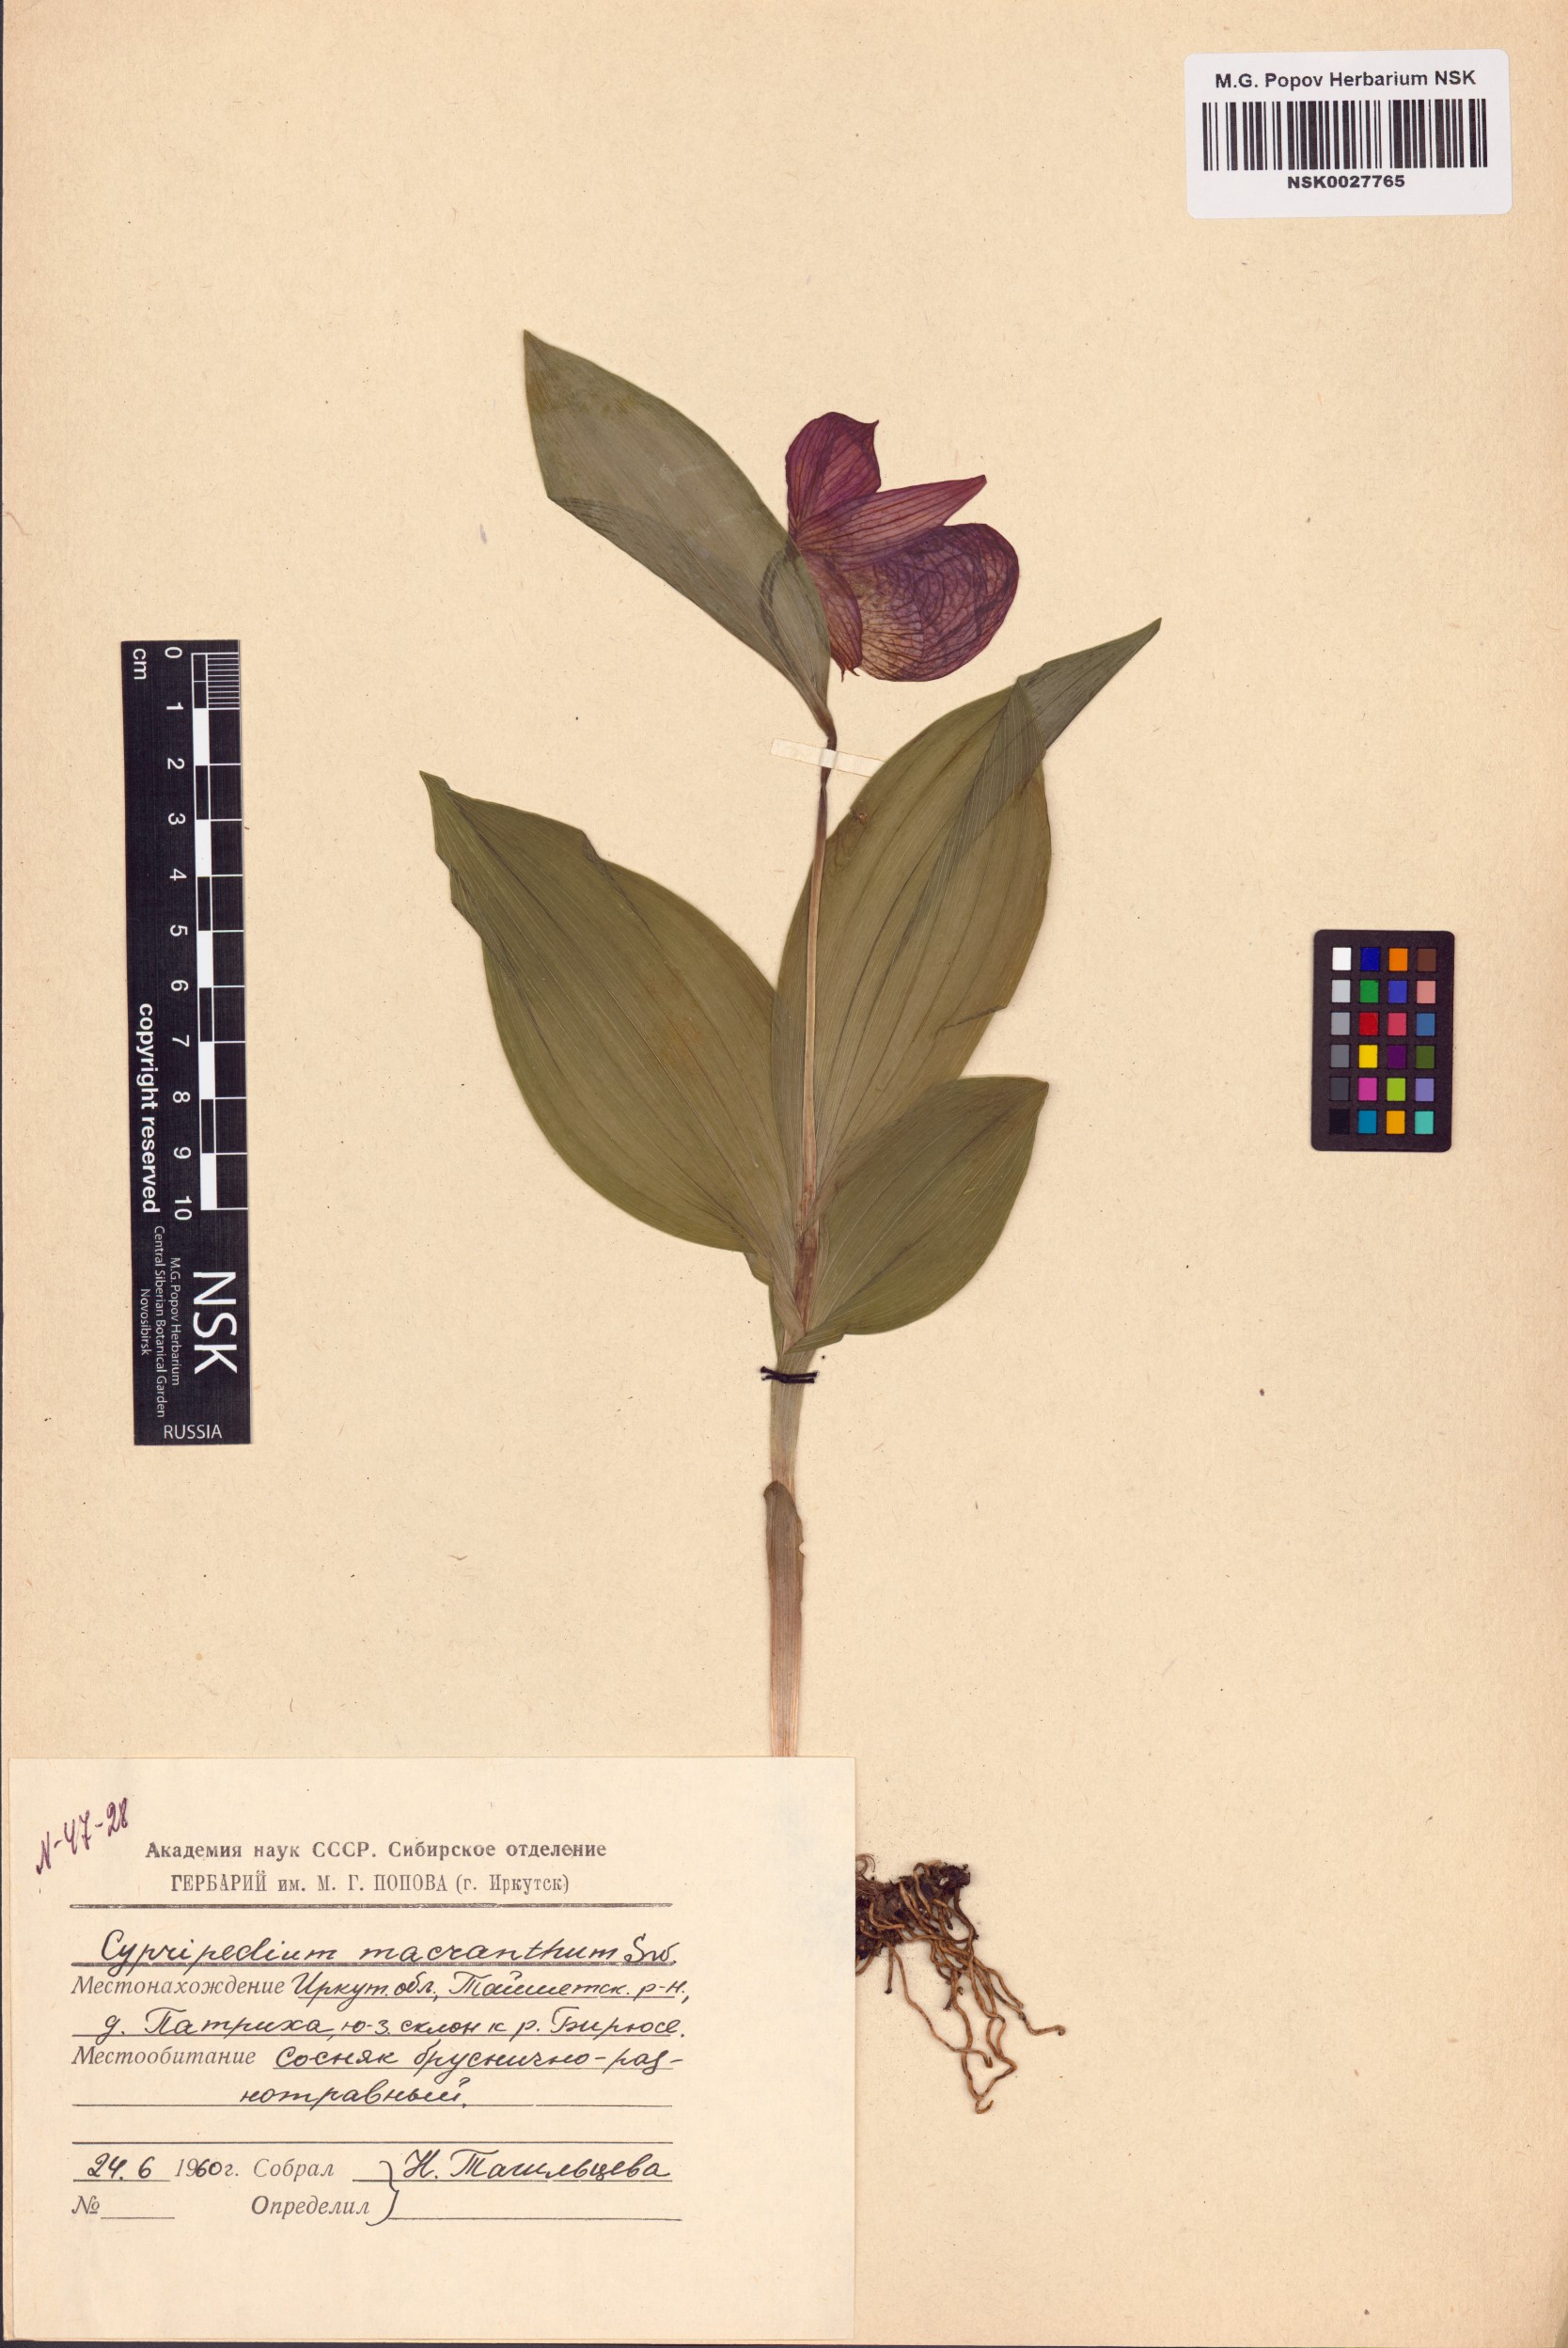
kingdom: Plantae
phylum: Tracheophyta
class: Liliopsida
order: Asparagales
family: Orchidaceae
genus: Cypripedium
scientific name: Cypripedium macranthos
